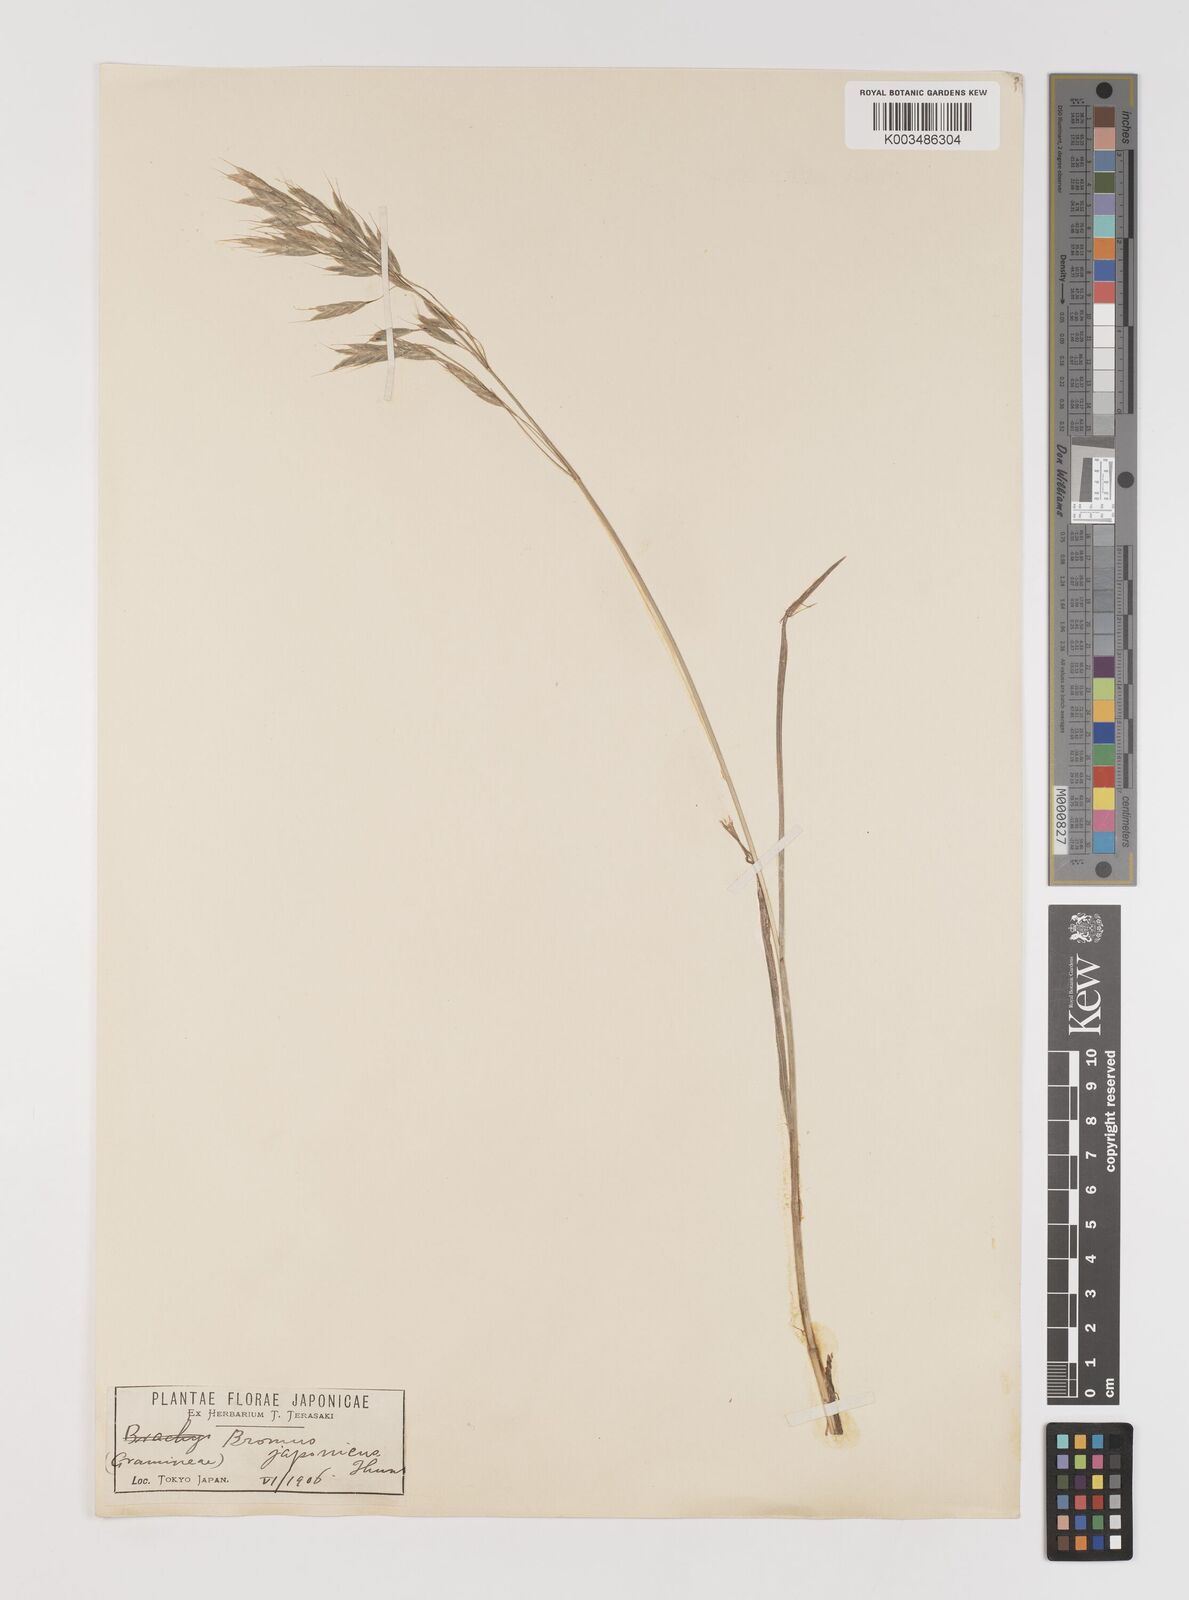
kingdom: Plantae
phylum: Tracheophyta
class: Liliopsida
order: Poales
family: Poaceae
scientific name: Poaceae
